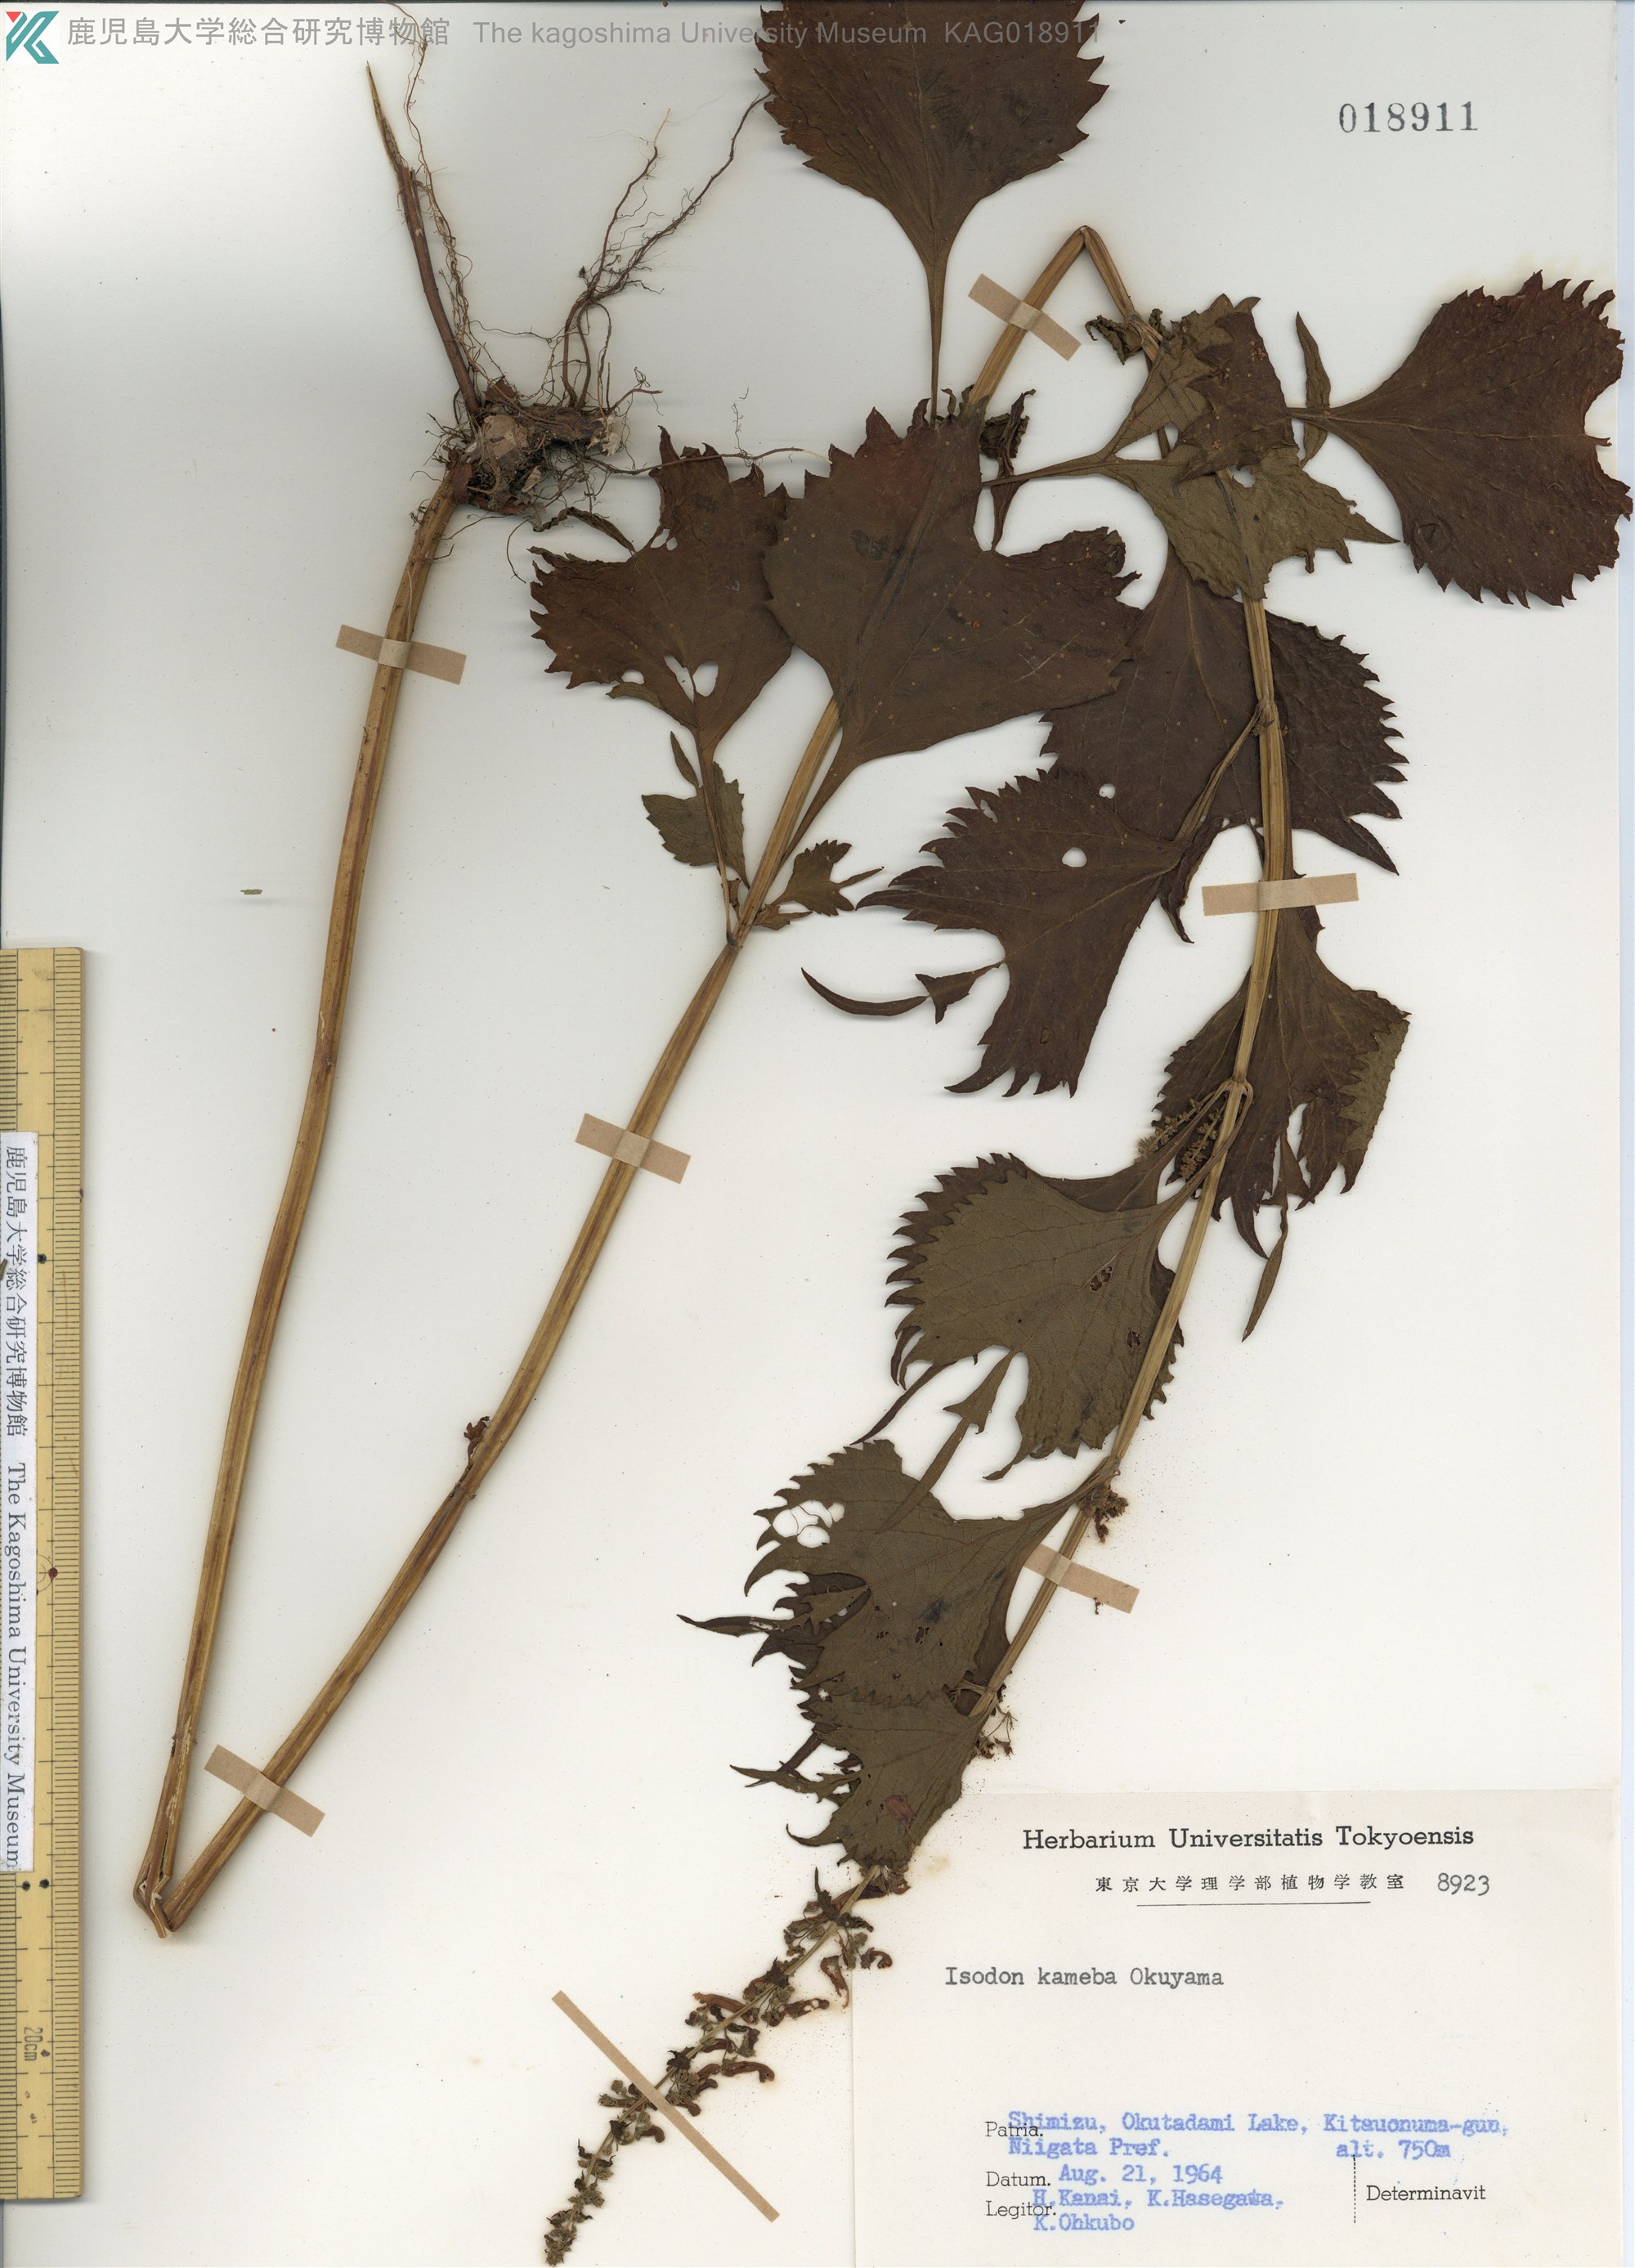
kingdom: Plantae
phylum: Tracheophyta
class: Magnoliopsida
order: Lamiales
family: Lamiaceae
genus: Isodon
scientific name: Isodon umbrosus
